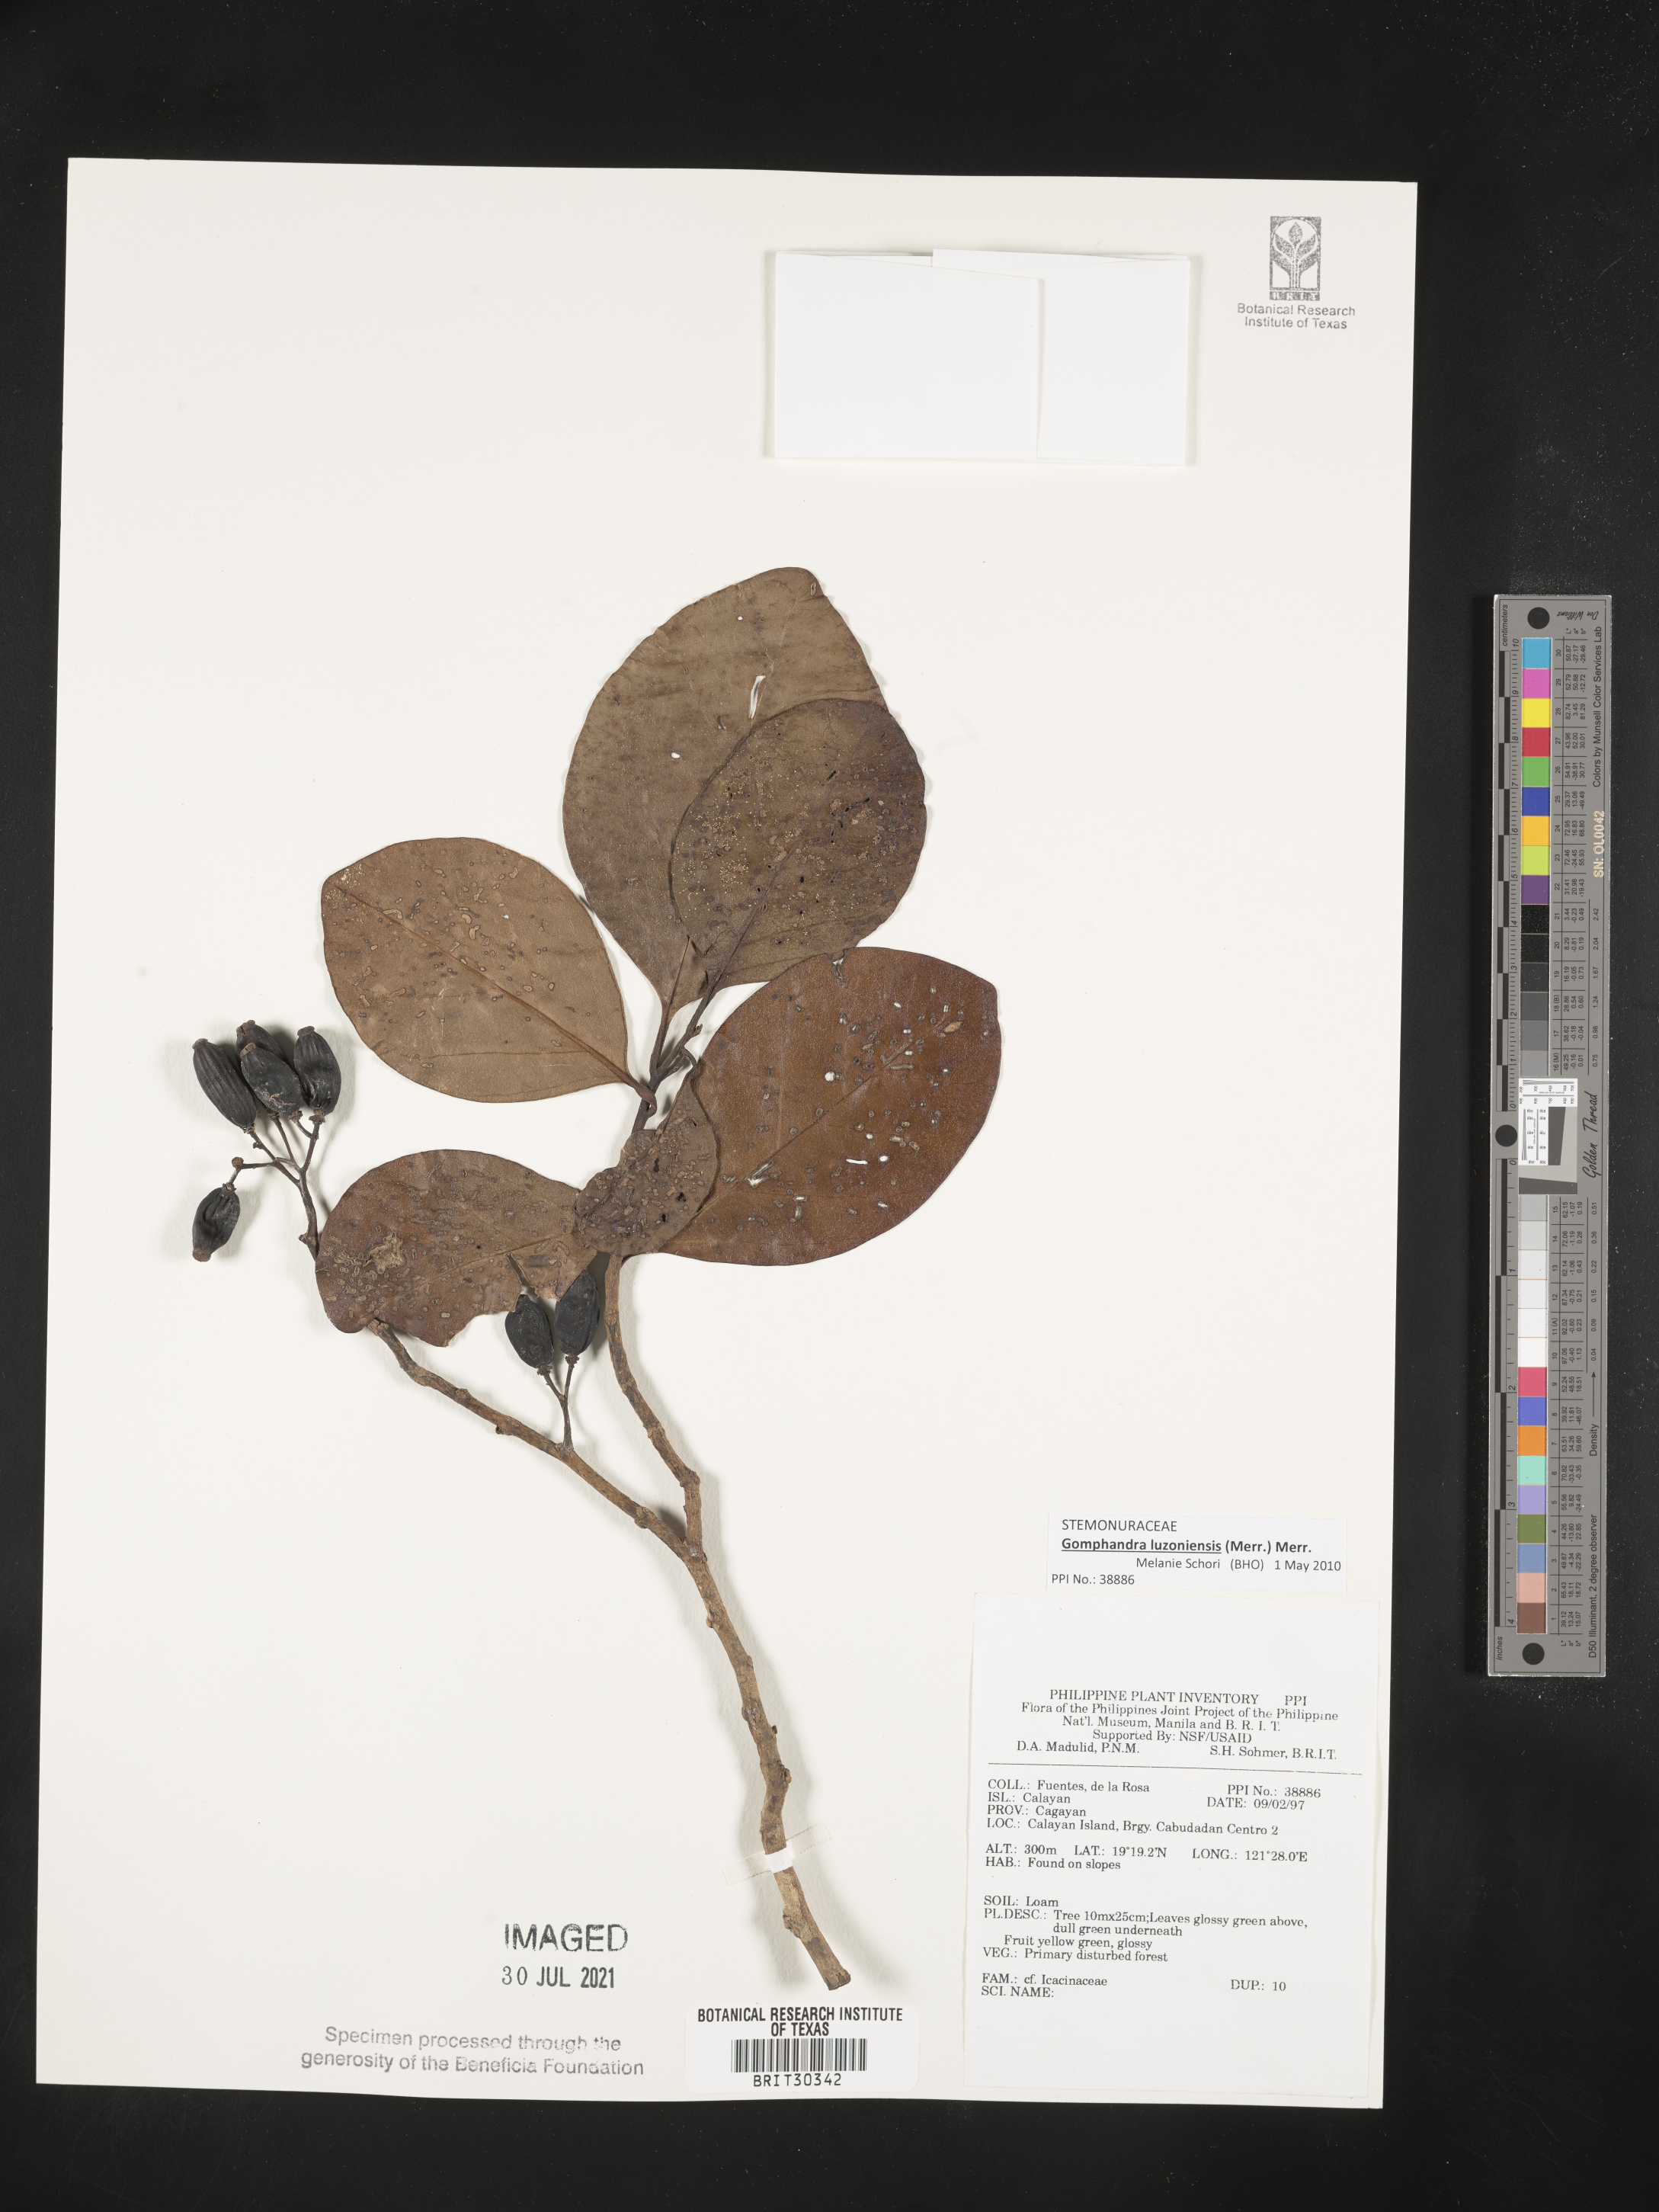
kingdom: Plantae
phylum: Tracheophyta
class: Magnoliopsida
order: Icacinales
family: Icacinaceae
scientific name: Icacinaceae
